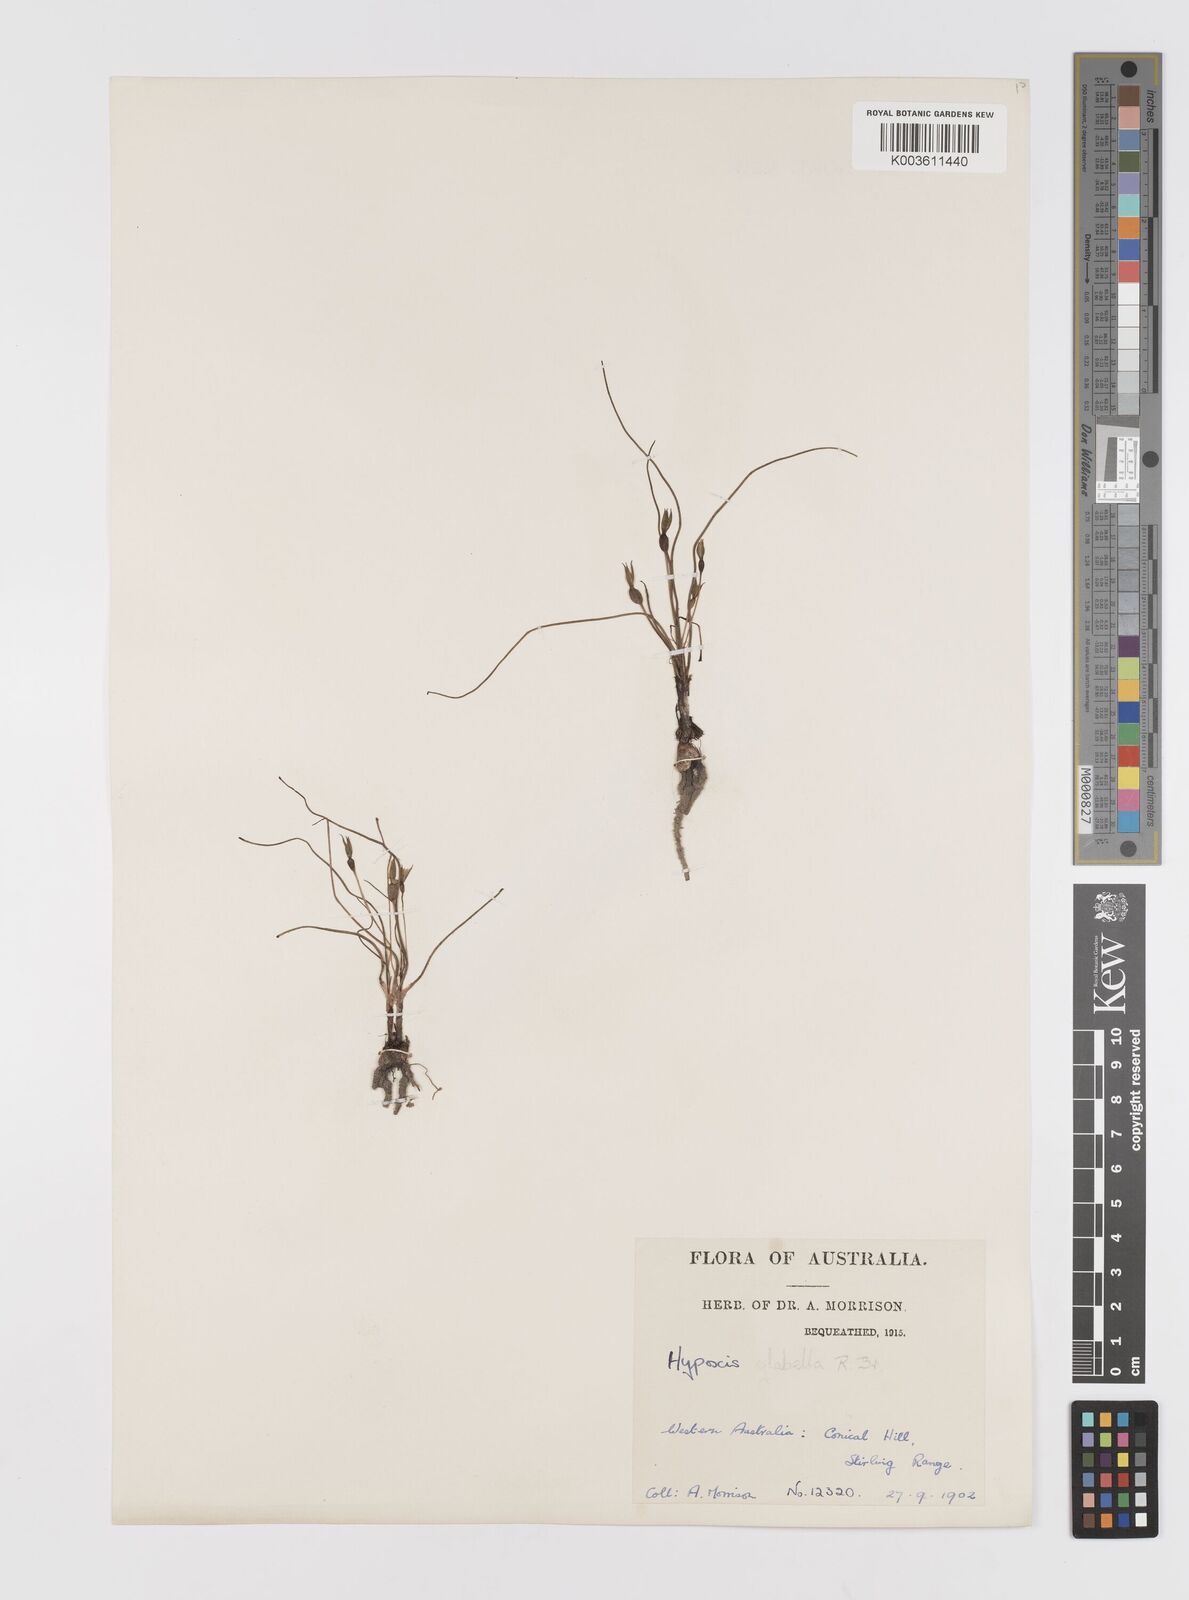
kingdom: Plantae
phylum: Tracheophyta
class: Liliopsida
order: Asparagales
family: Hypoxidaceae
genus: Pauridia
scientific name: Pauridia glabella
